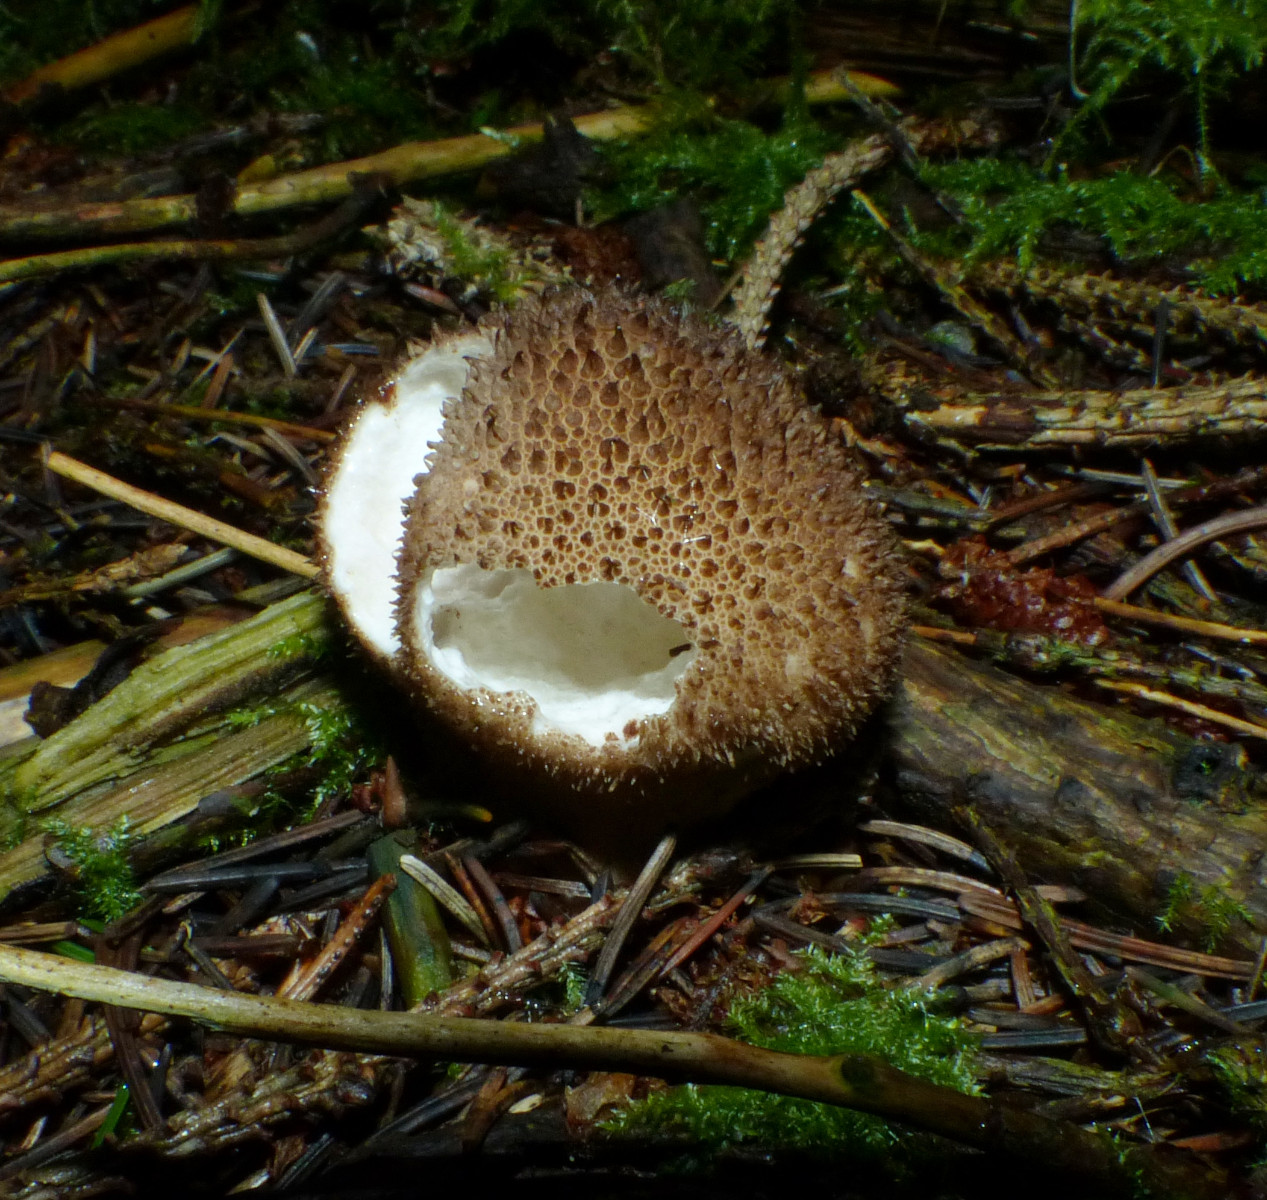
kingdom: Fungi
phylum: Basidiomycota
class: Agaricomycetes
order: Agaricales
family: Lycoperdaceae
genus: Lycoperdon
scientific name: Lycoperdon nigrescens
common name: sortagtig støvbold
